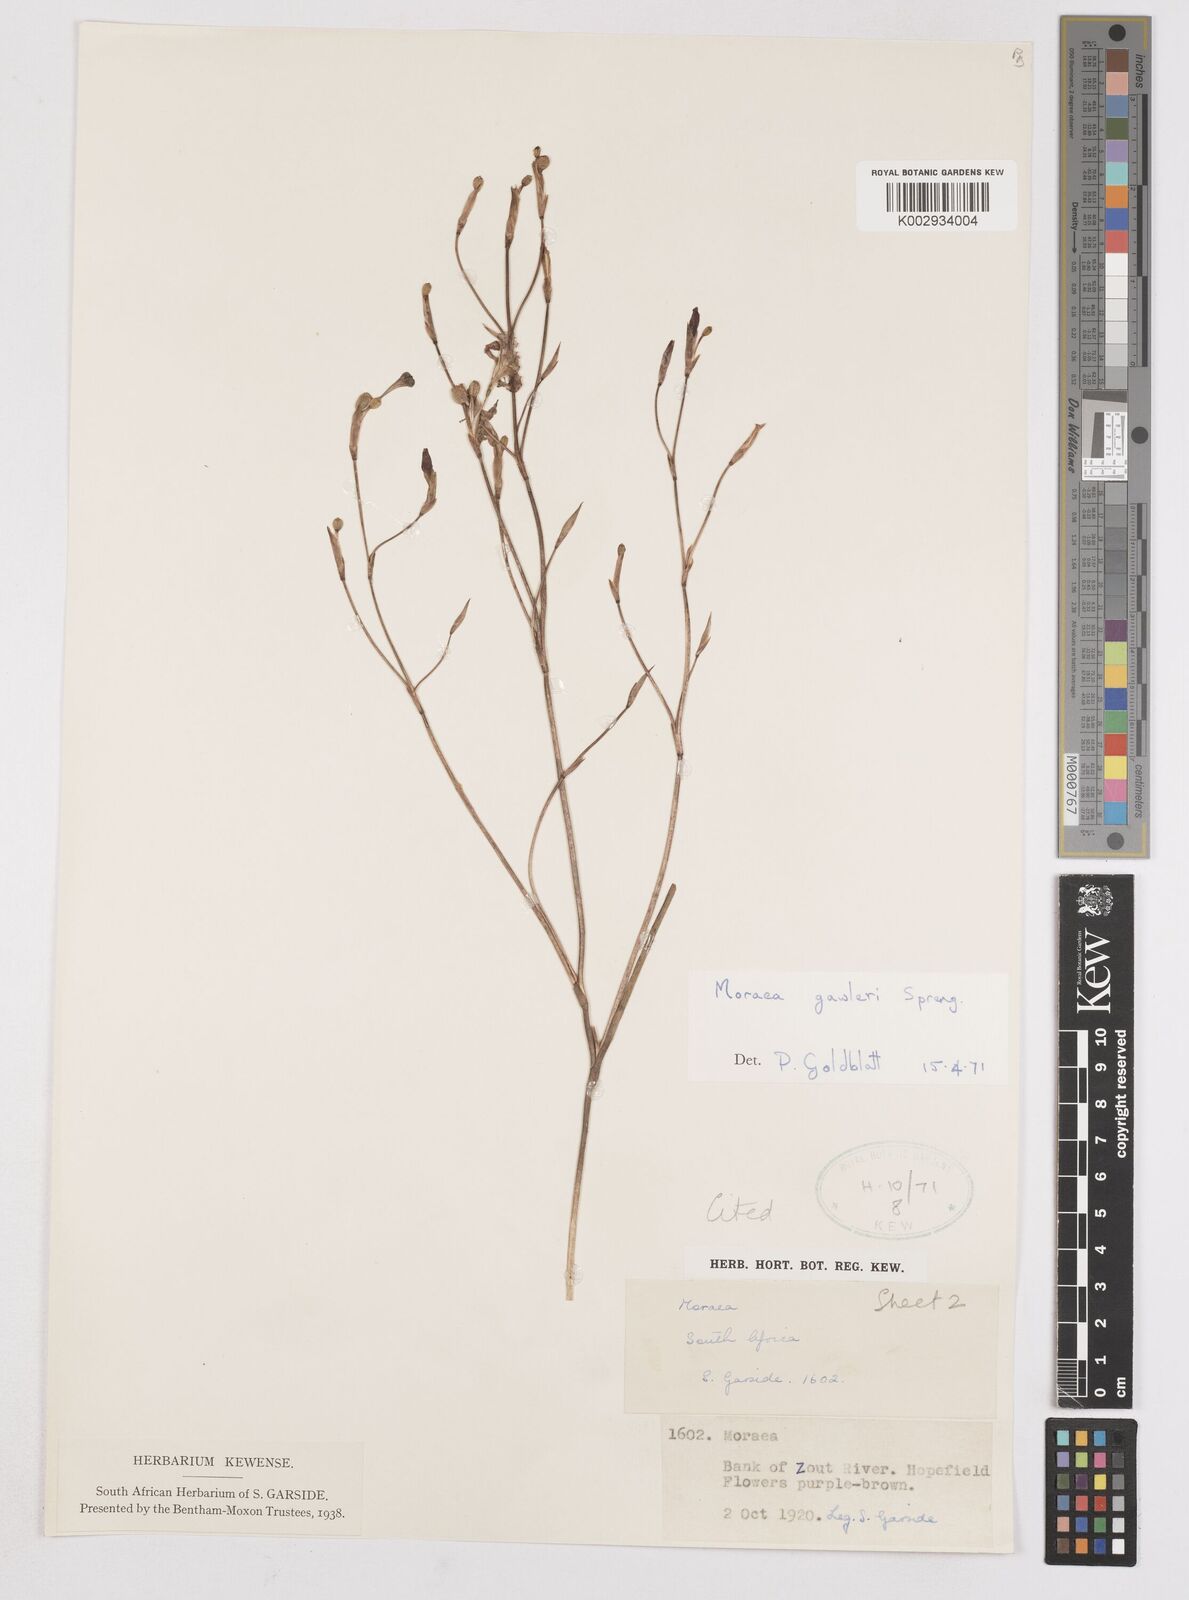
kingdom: Plantae
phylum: Tracheophyta
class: Liliopsida
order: Asparagales
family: Iridaceae
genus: Moraea
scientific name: Moraea gawleri
